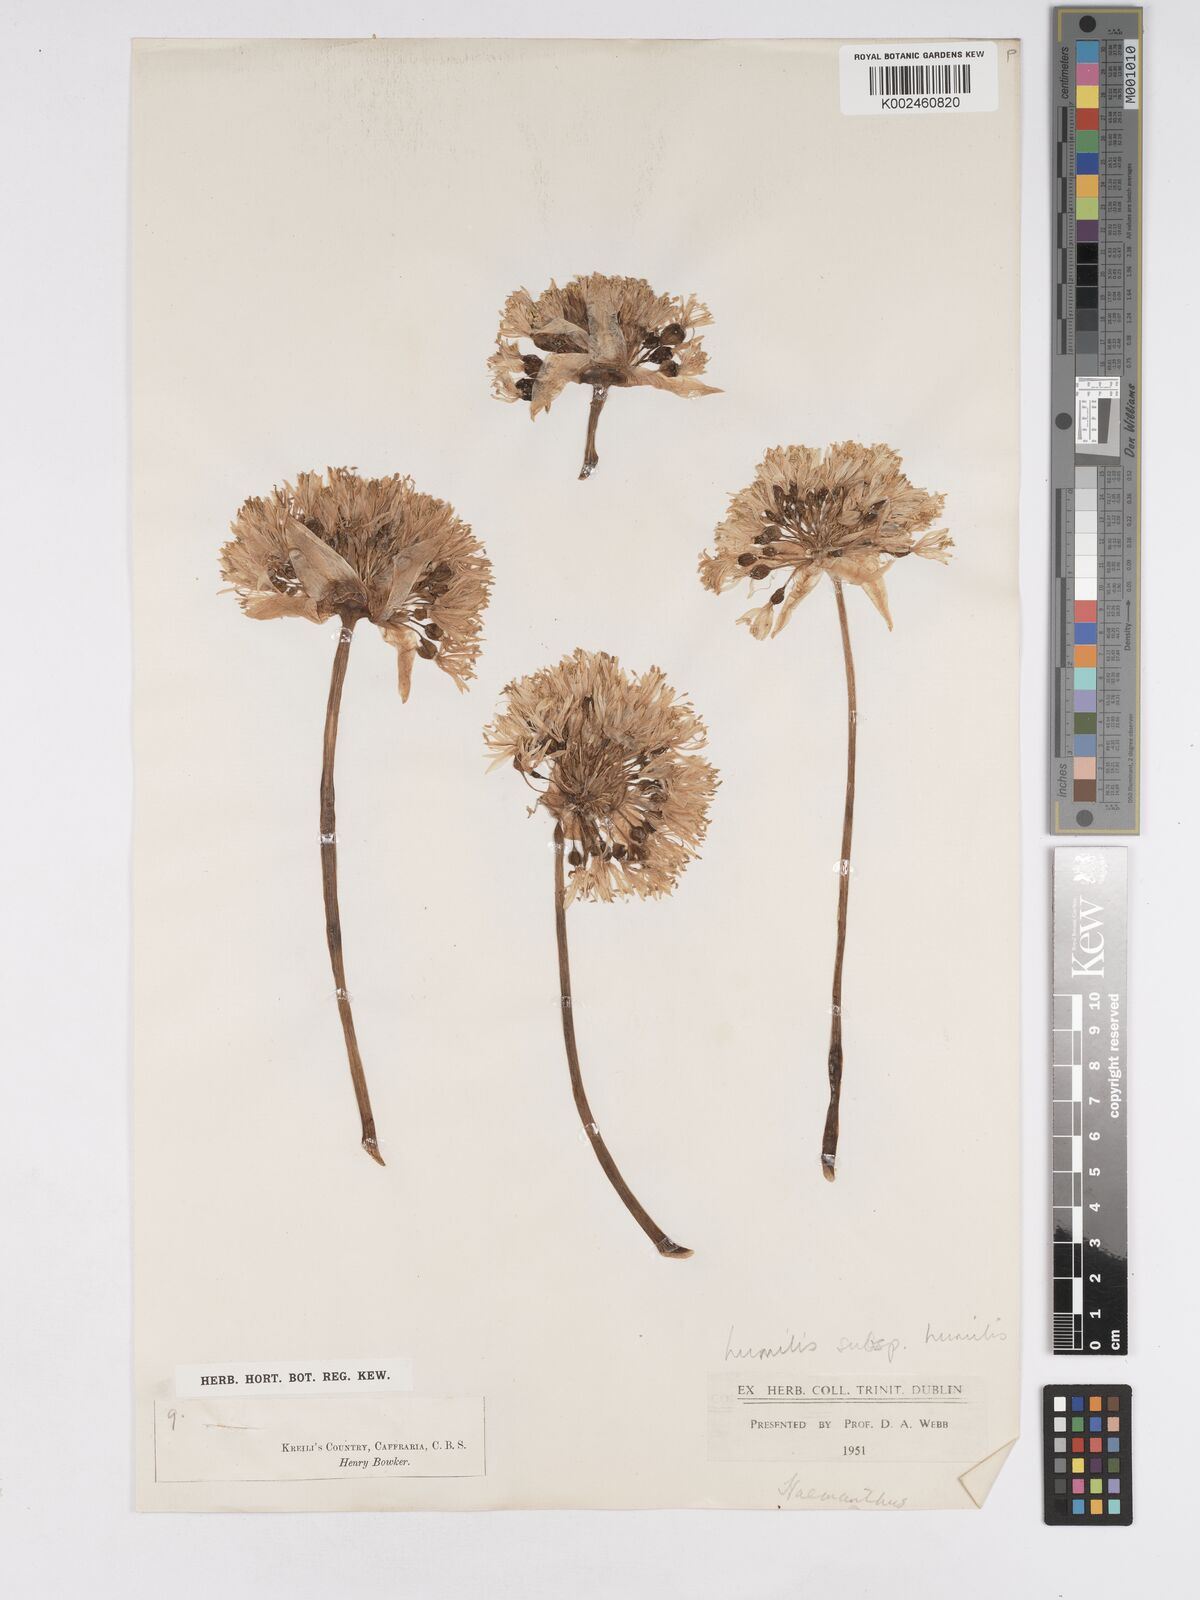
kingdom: Plantae
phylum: Tracheophyta
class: Liliopsida
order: Asparagales
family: Amaryllidaceae
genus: Haemanthus
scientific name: Haemanthus humilis
